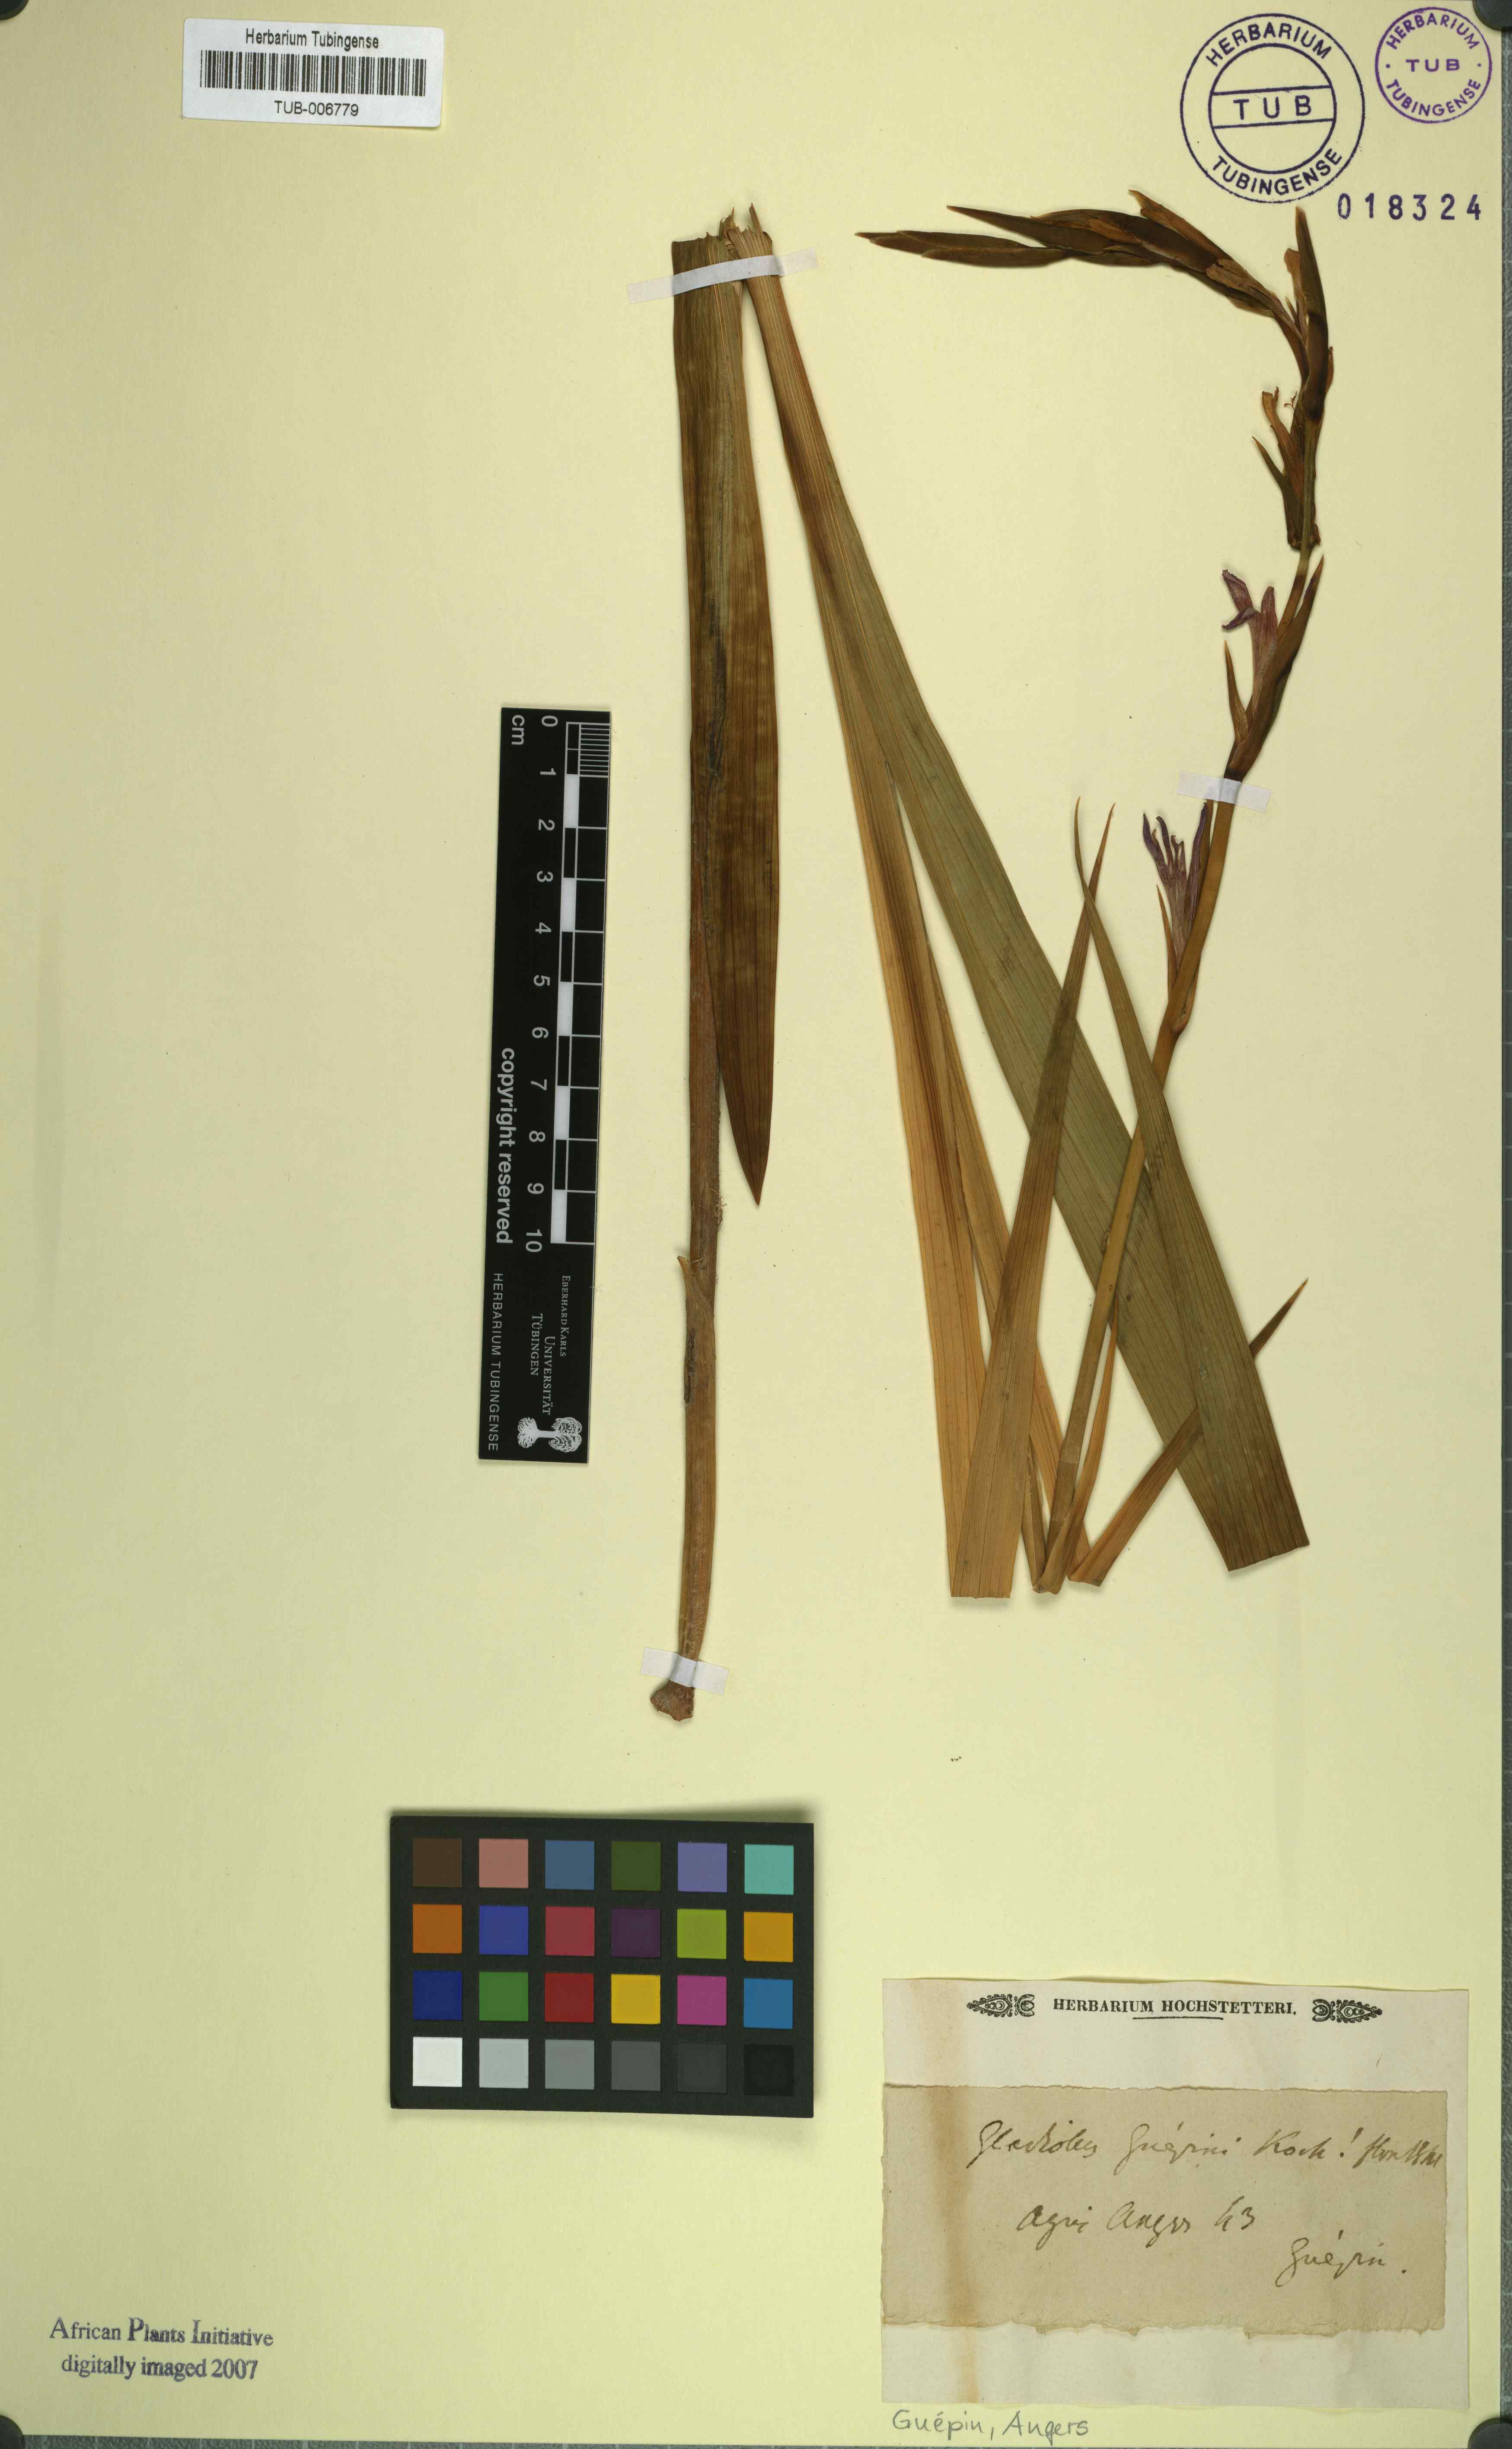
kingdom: Plantae
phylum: Tracheophyta
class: Liliopsida
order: Asparagales
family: Iridaceae
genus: Gladiolus
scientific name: Gladiolus italicus
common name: Field gladiolus
